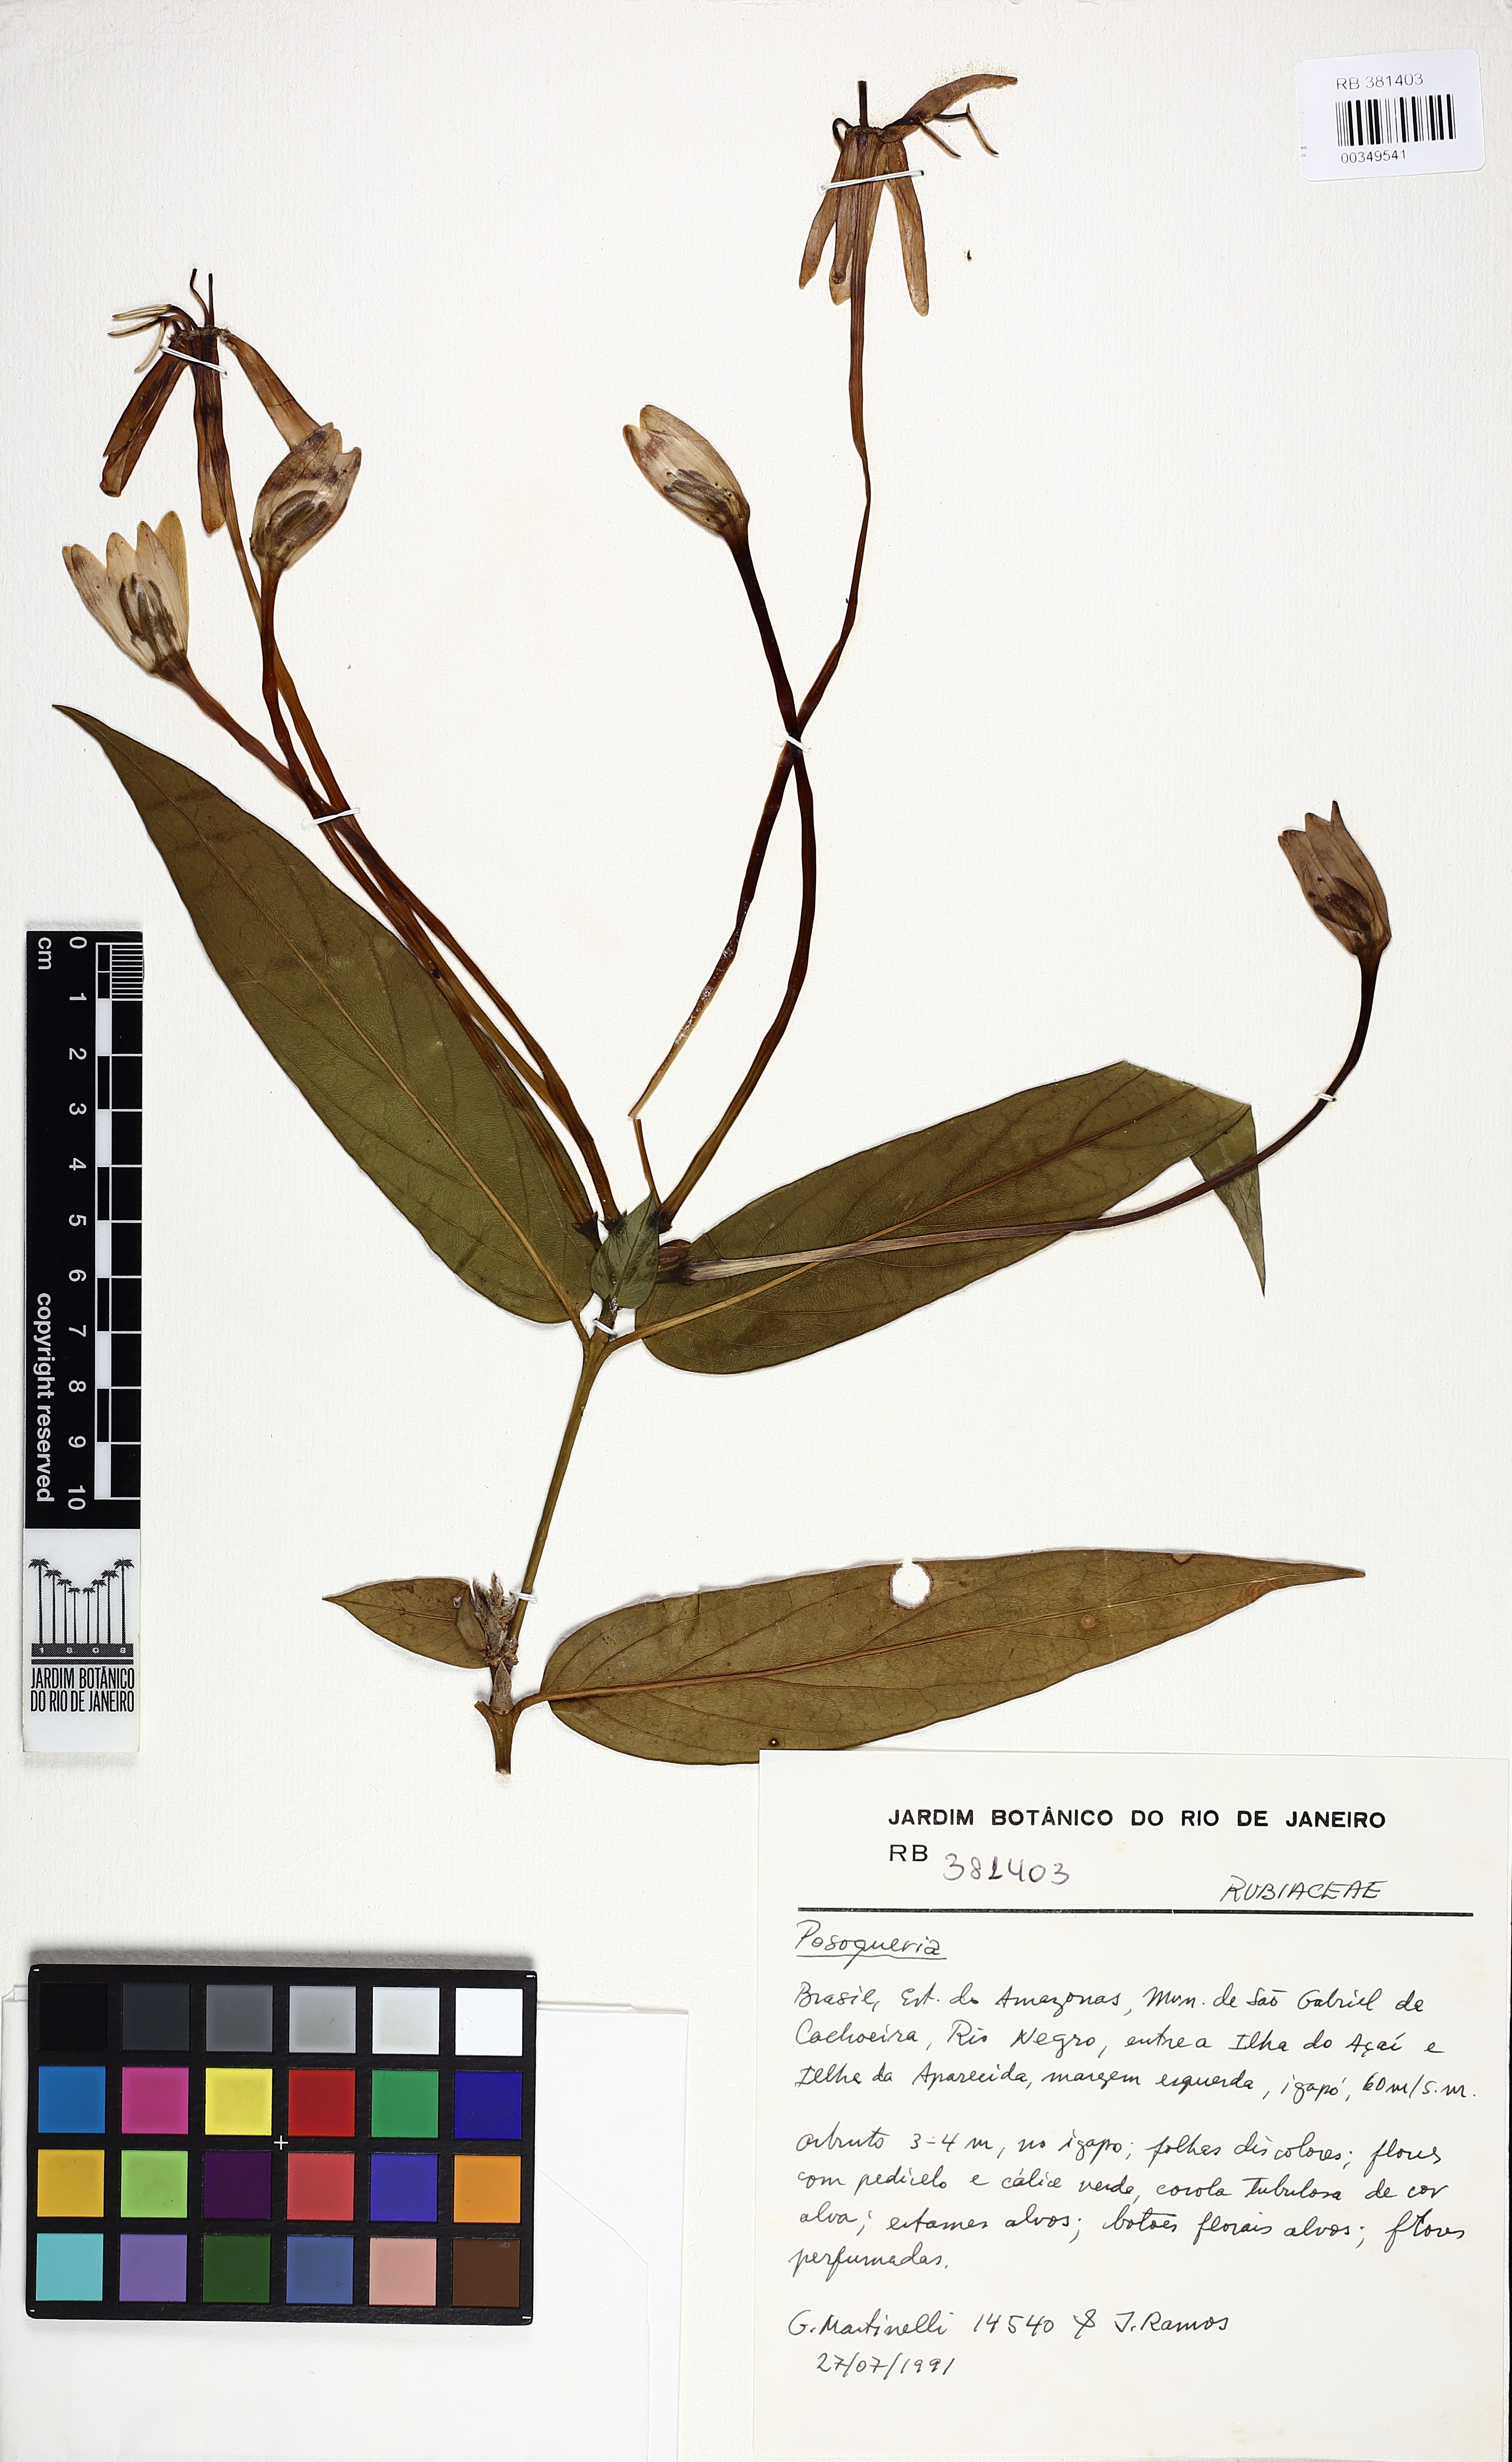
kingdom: Plantae
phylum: Tracheophyta
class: Magnoliopsida
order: Gentianales
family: Rubiaceae
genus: Posoqueria
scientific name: Posoqueria longiflora
